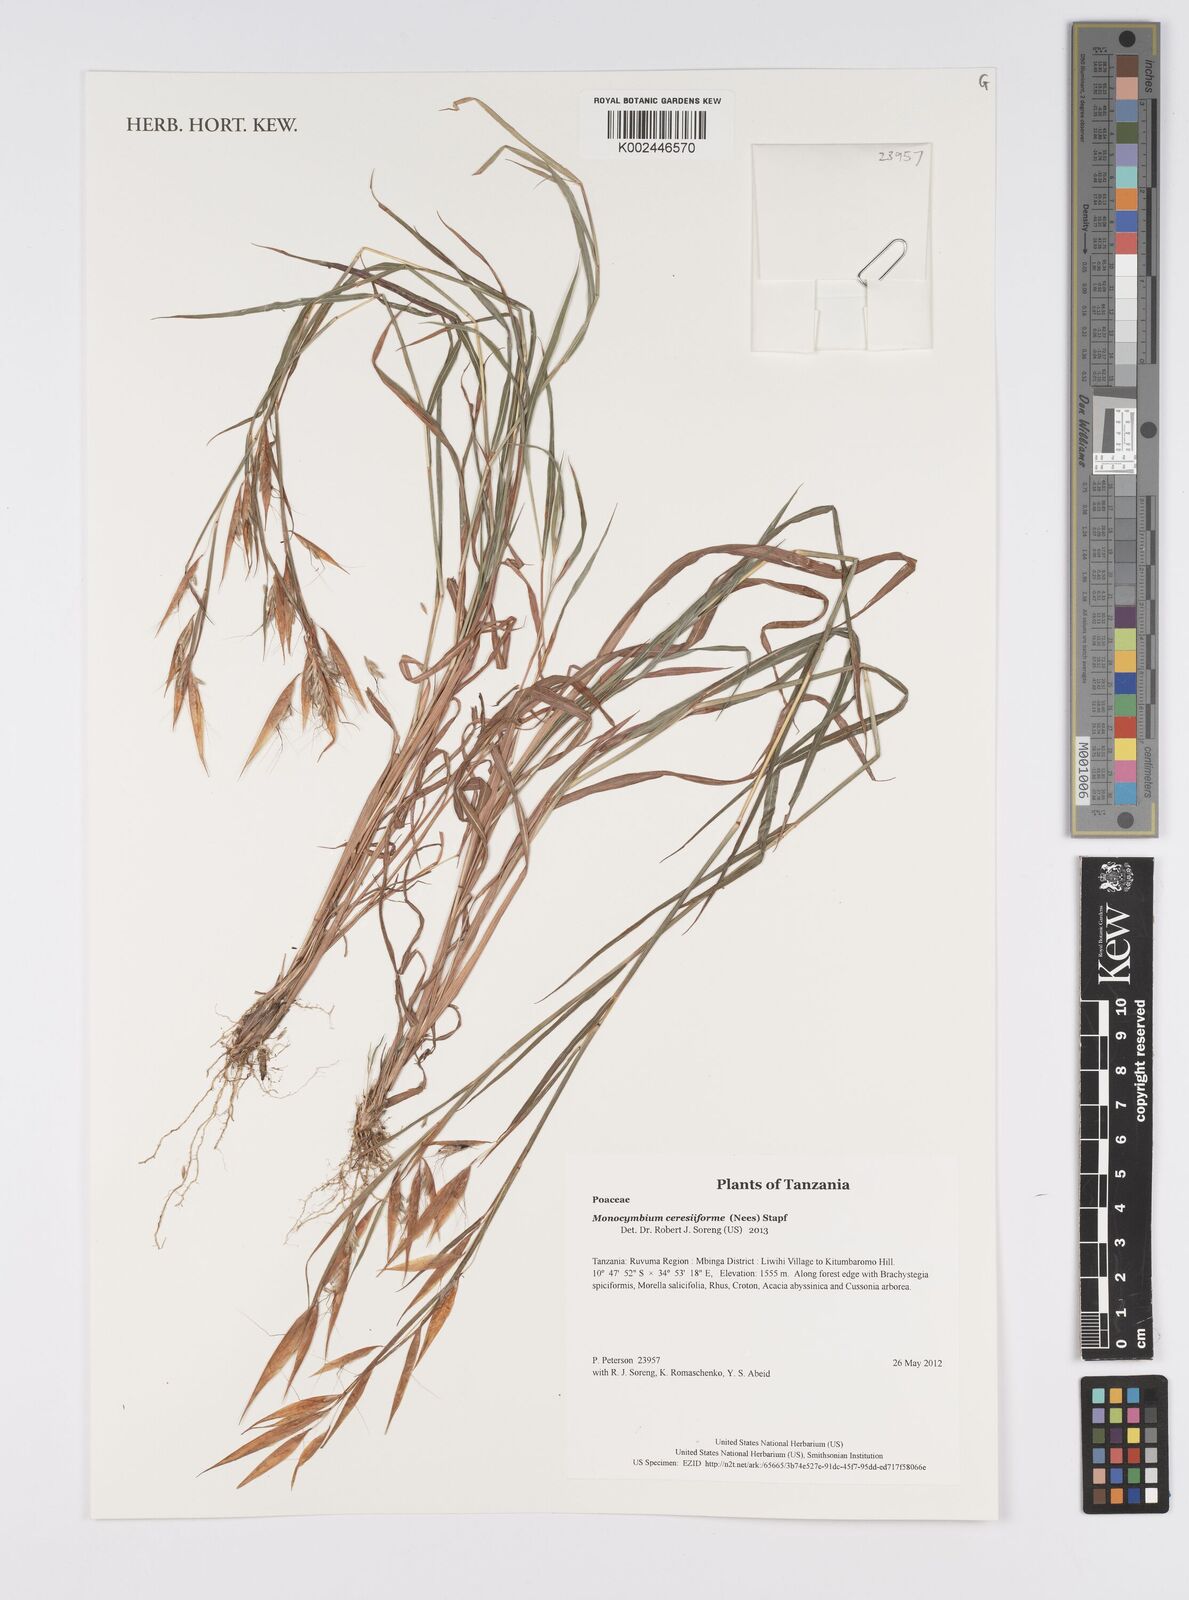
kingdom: Plantae
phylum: Tracheophyta
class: Liliopsida
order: Poales
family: Poaceae
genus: Monocymbium
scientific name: Monocymbium ceresiiforme
